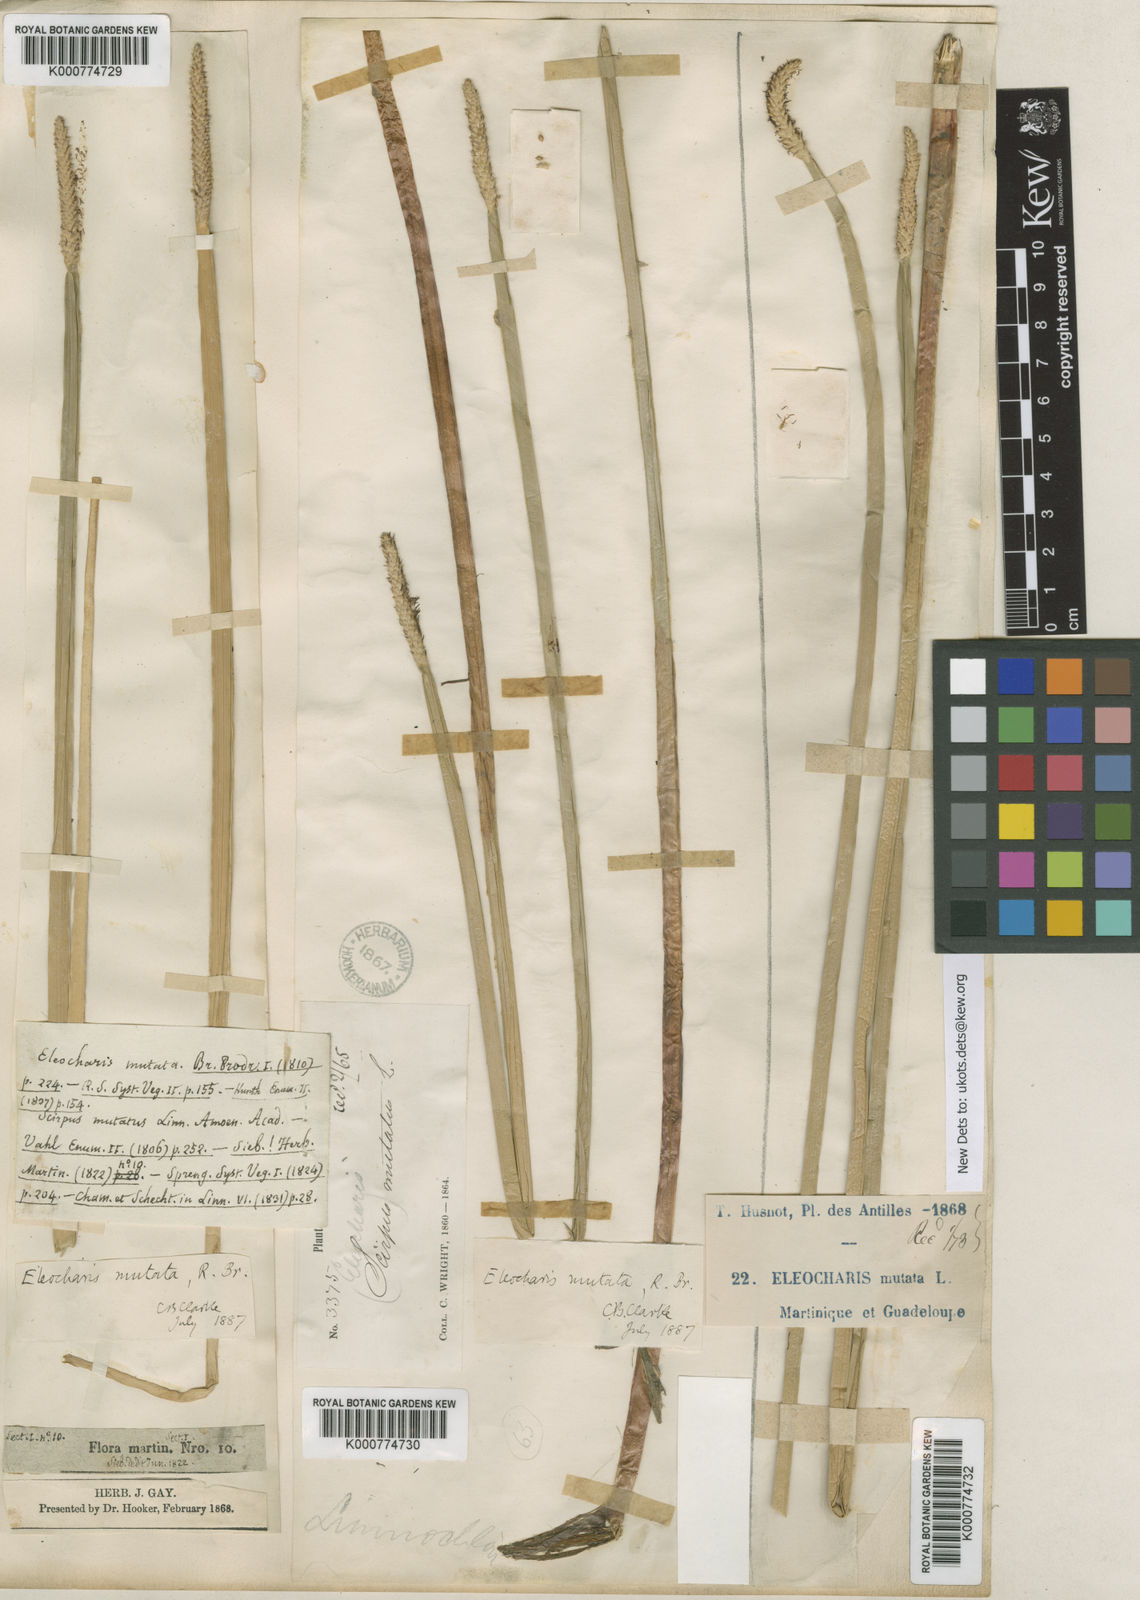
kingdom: Plantae
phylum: Tracheophyta
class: Liliopsida
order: Poales
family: Cyperaceae
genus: Eleocharis
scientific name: Eleocharis mutata
